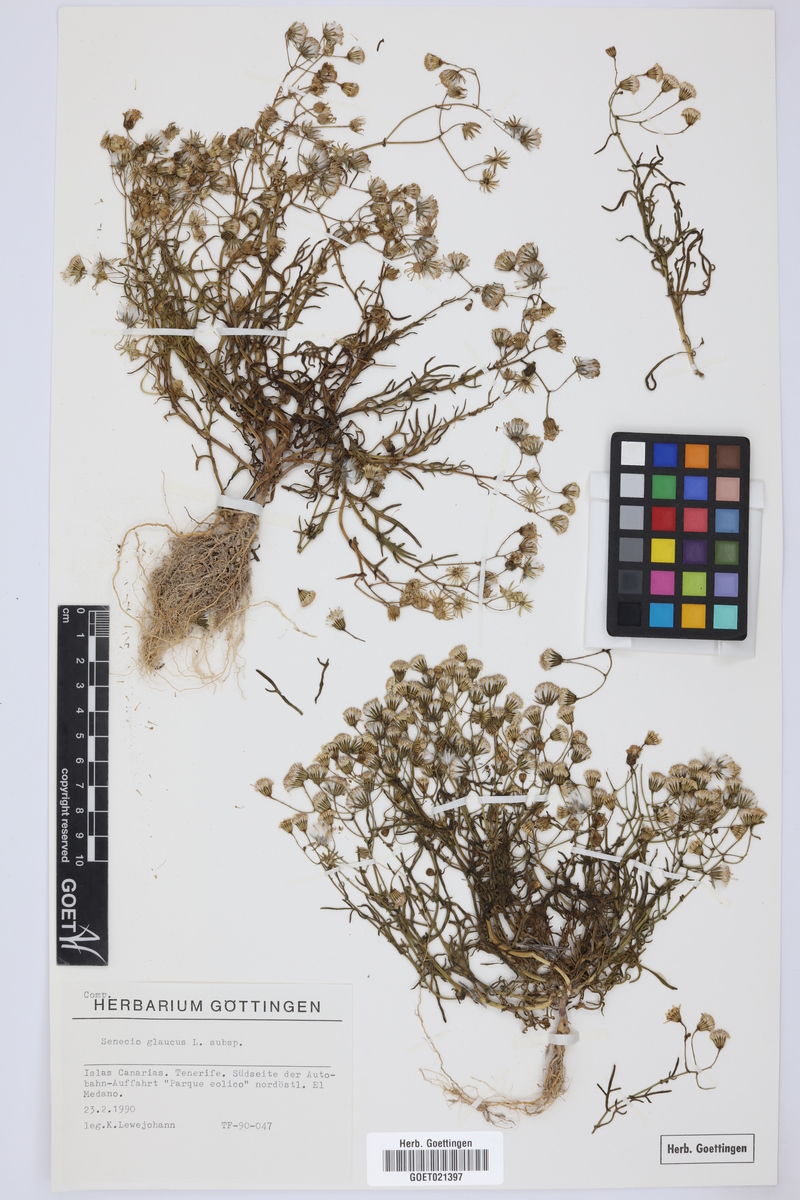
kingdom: Plantae
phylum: Tracheophyta
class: Magnoliopsida
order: Asterales
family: Asteraceae
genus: Senecio
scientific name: Senecio glaucus
